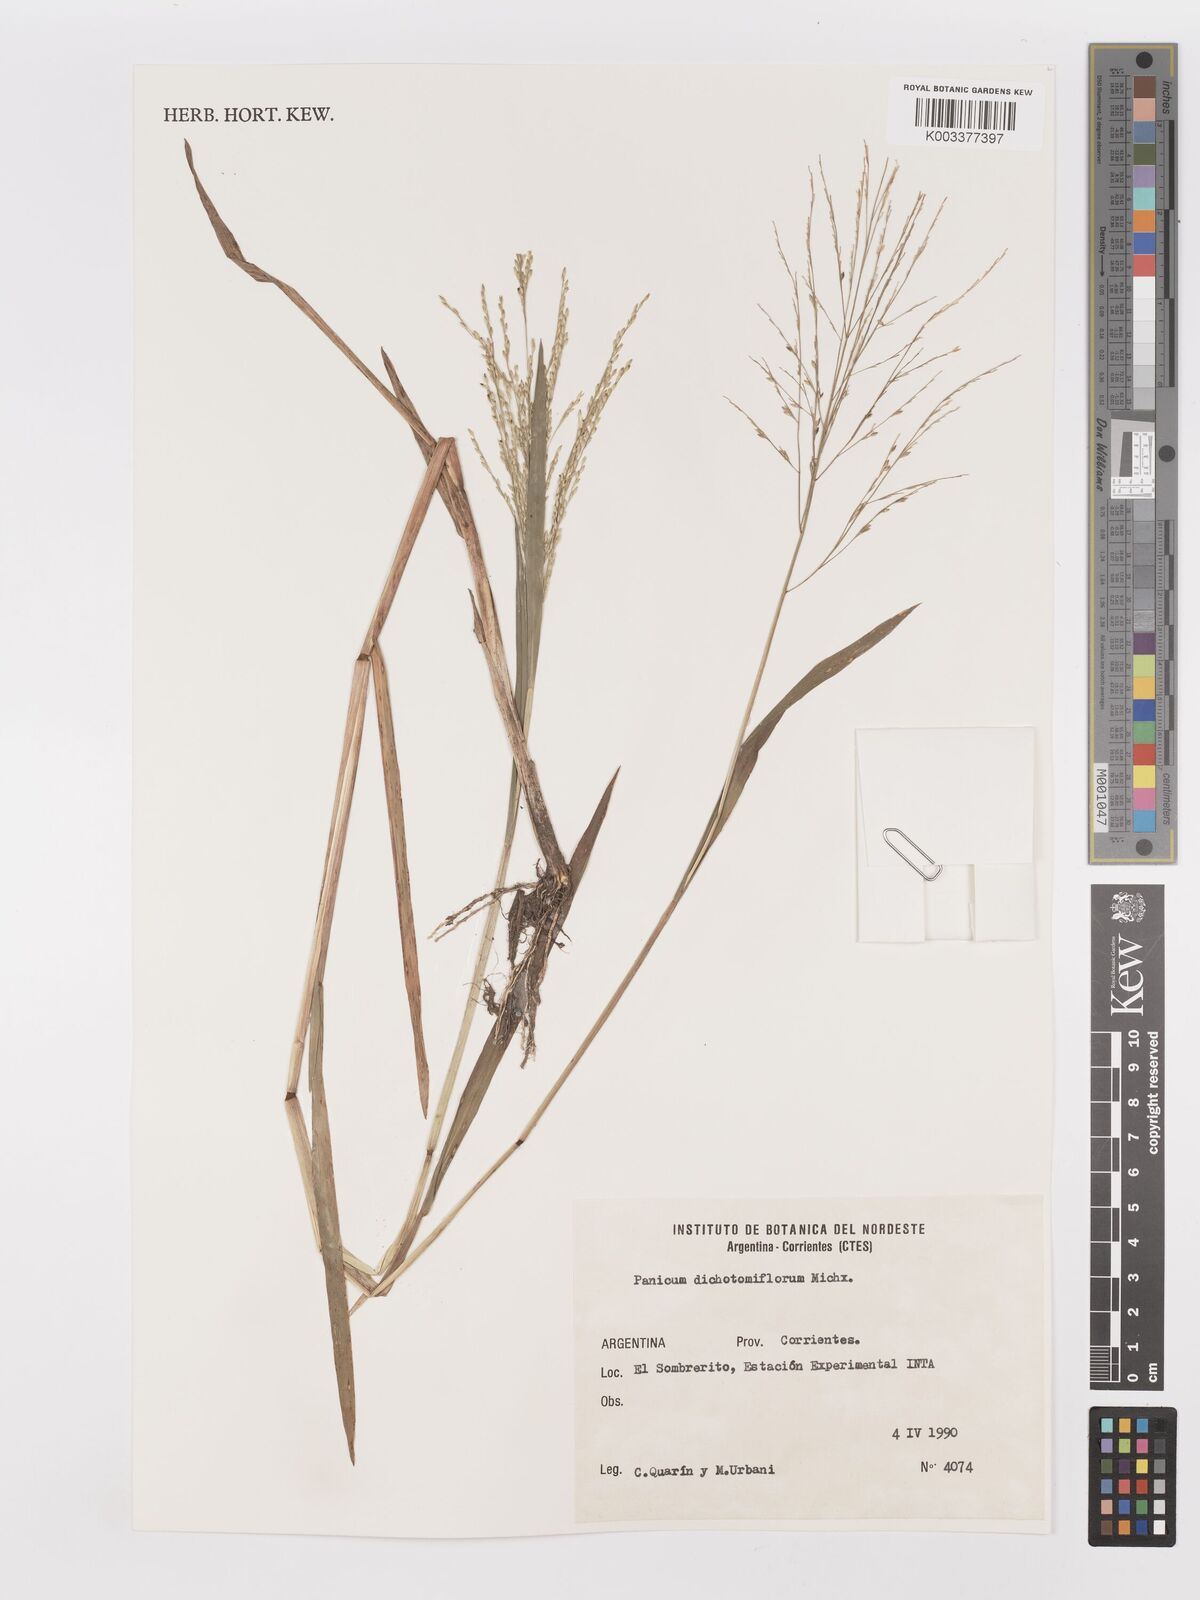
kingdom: Plantae
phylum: Tracheophyta
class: Liliopsida
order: Poales
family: Poaceae
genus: Panicum
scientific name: Panicum dichotomiflorum
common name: Autumn millet
